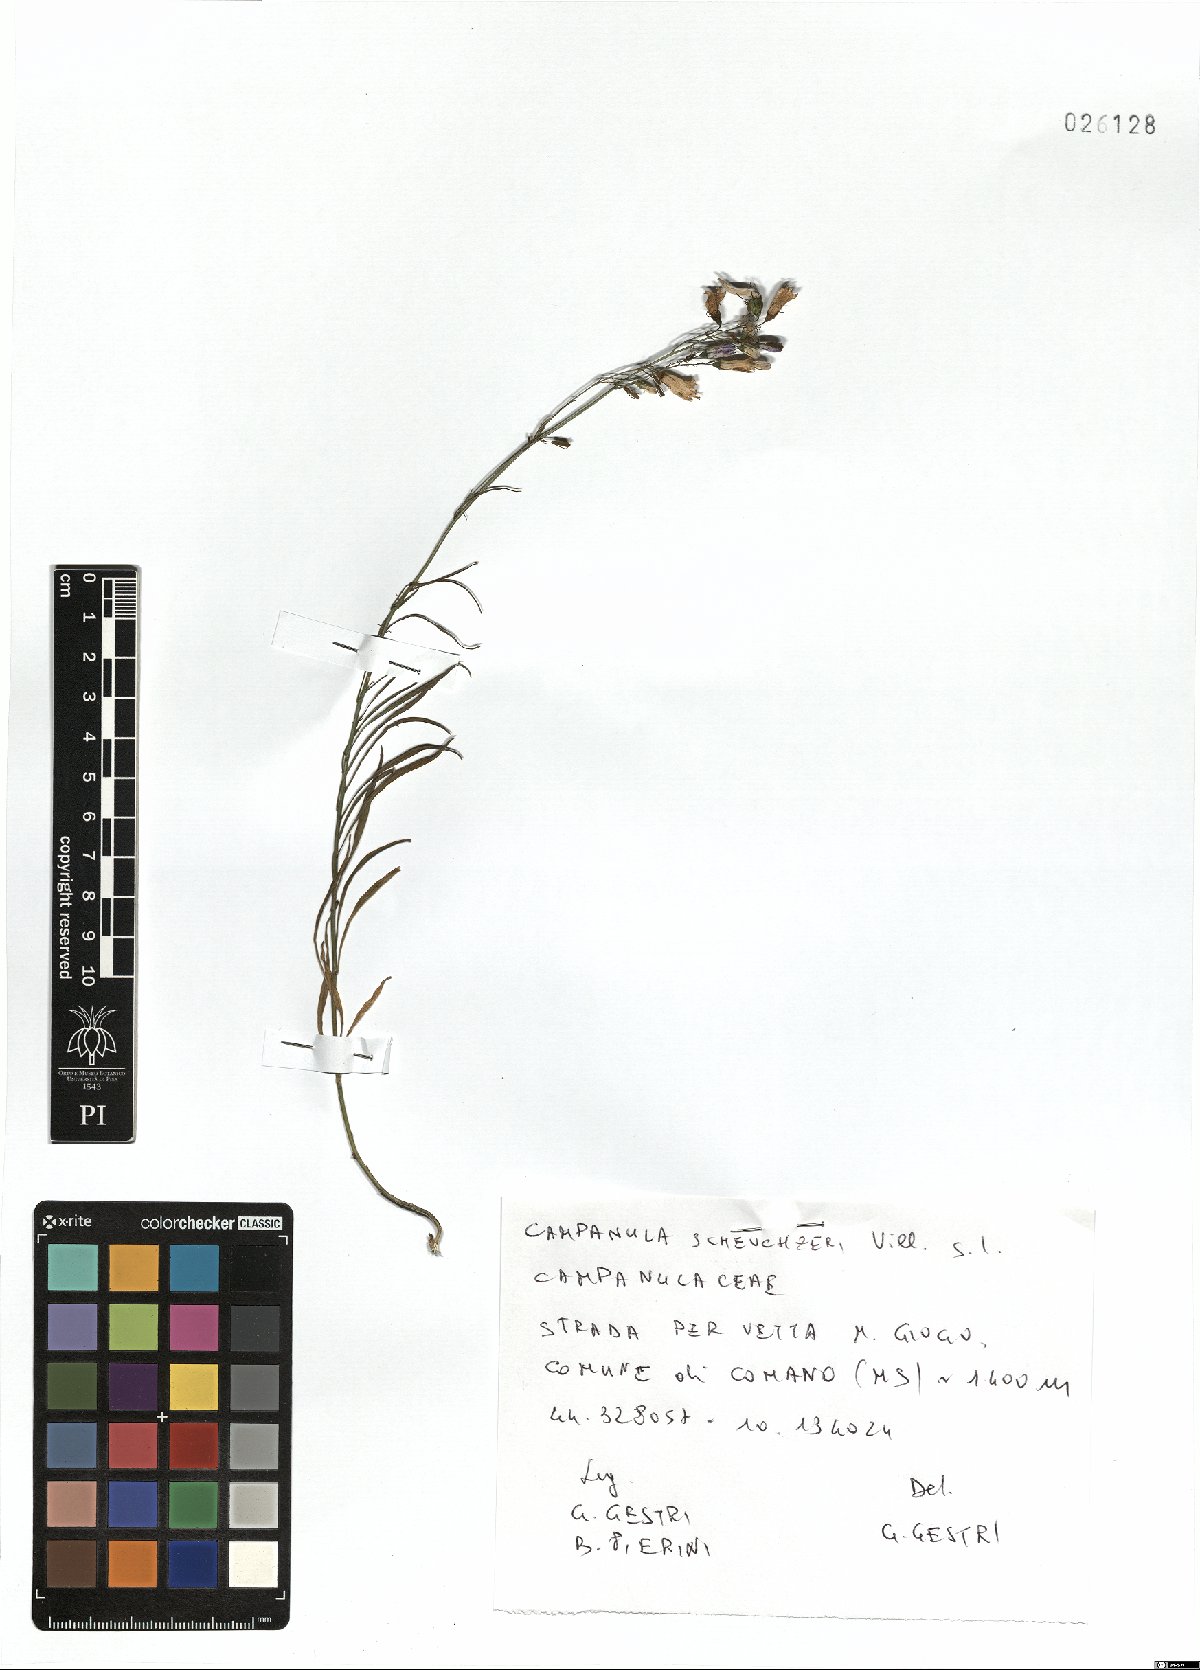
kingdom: Plantae
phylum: Tracheophyta
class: Magnoliopsida
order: Asterales
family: Campanulaceae
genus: Campanula
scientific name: Campanula scheuchzeri
